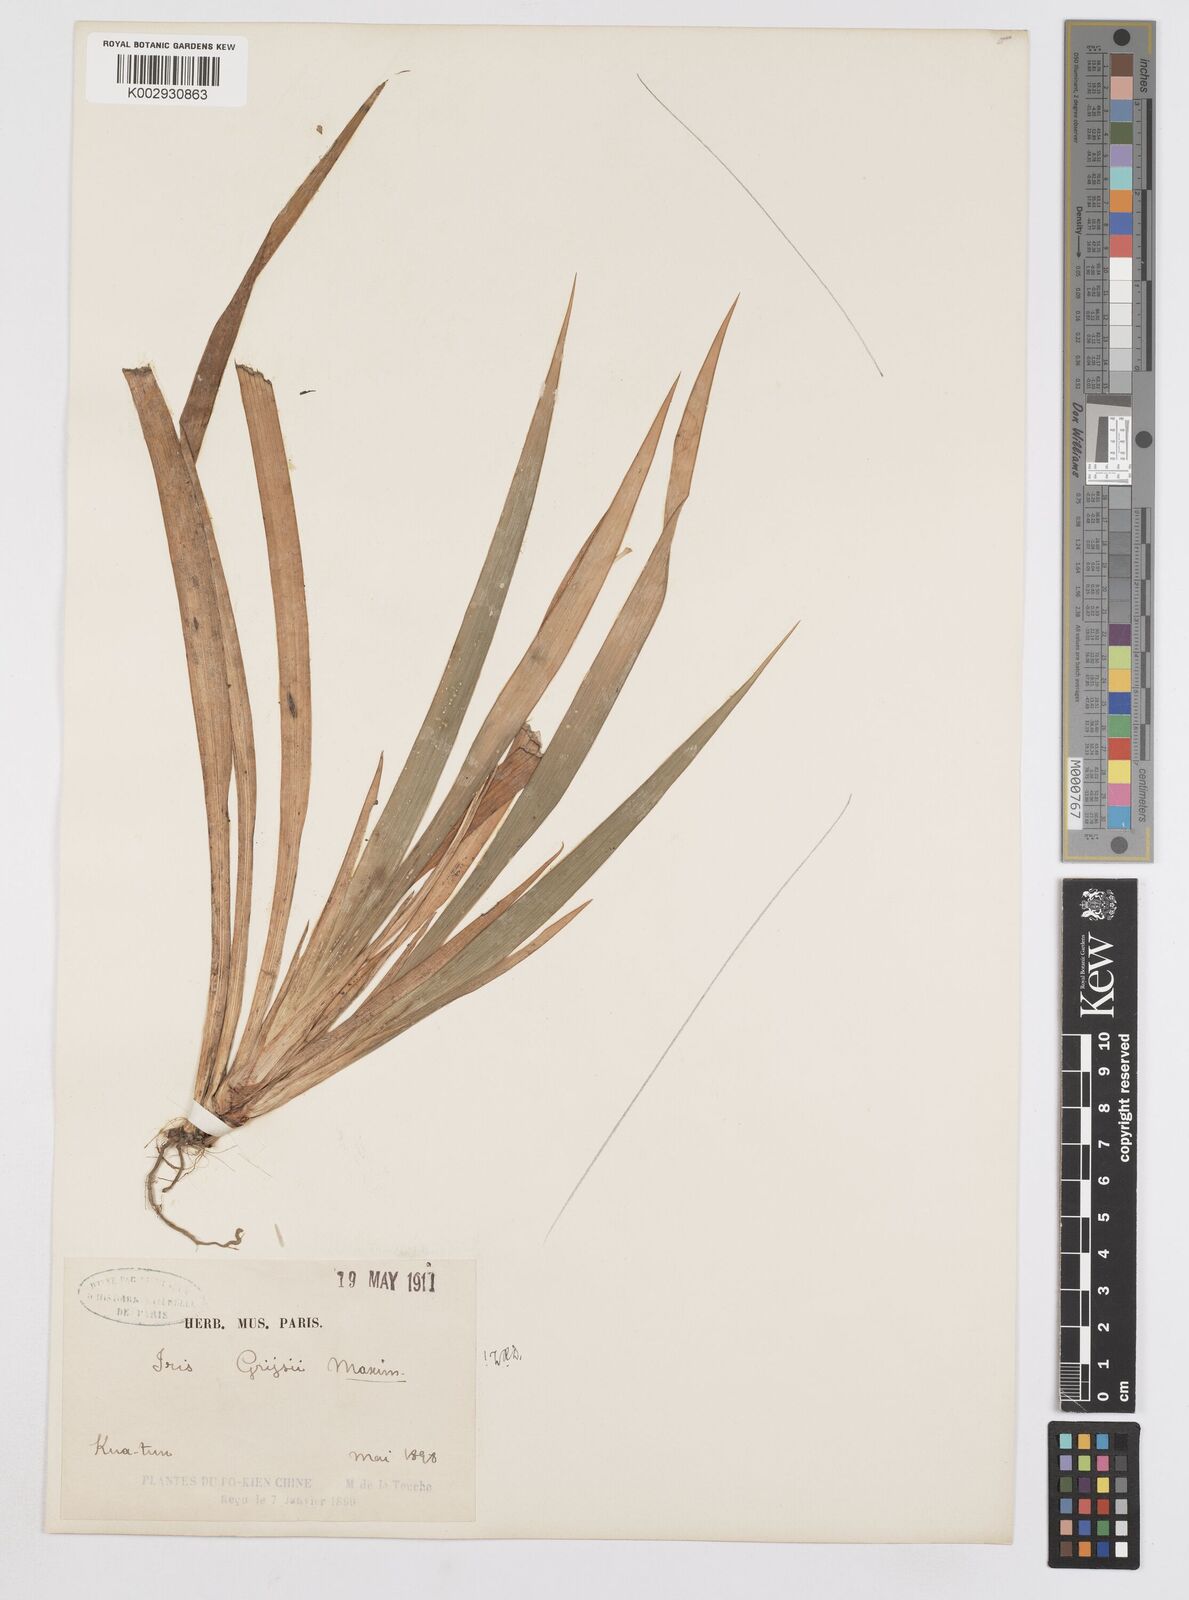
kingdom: Plantae
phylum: Tracheophyta
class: Liliopsida
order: Asparagales
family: Iridaceae
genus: Iris
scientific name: Iris speculatrix
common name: Small-flower iris
